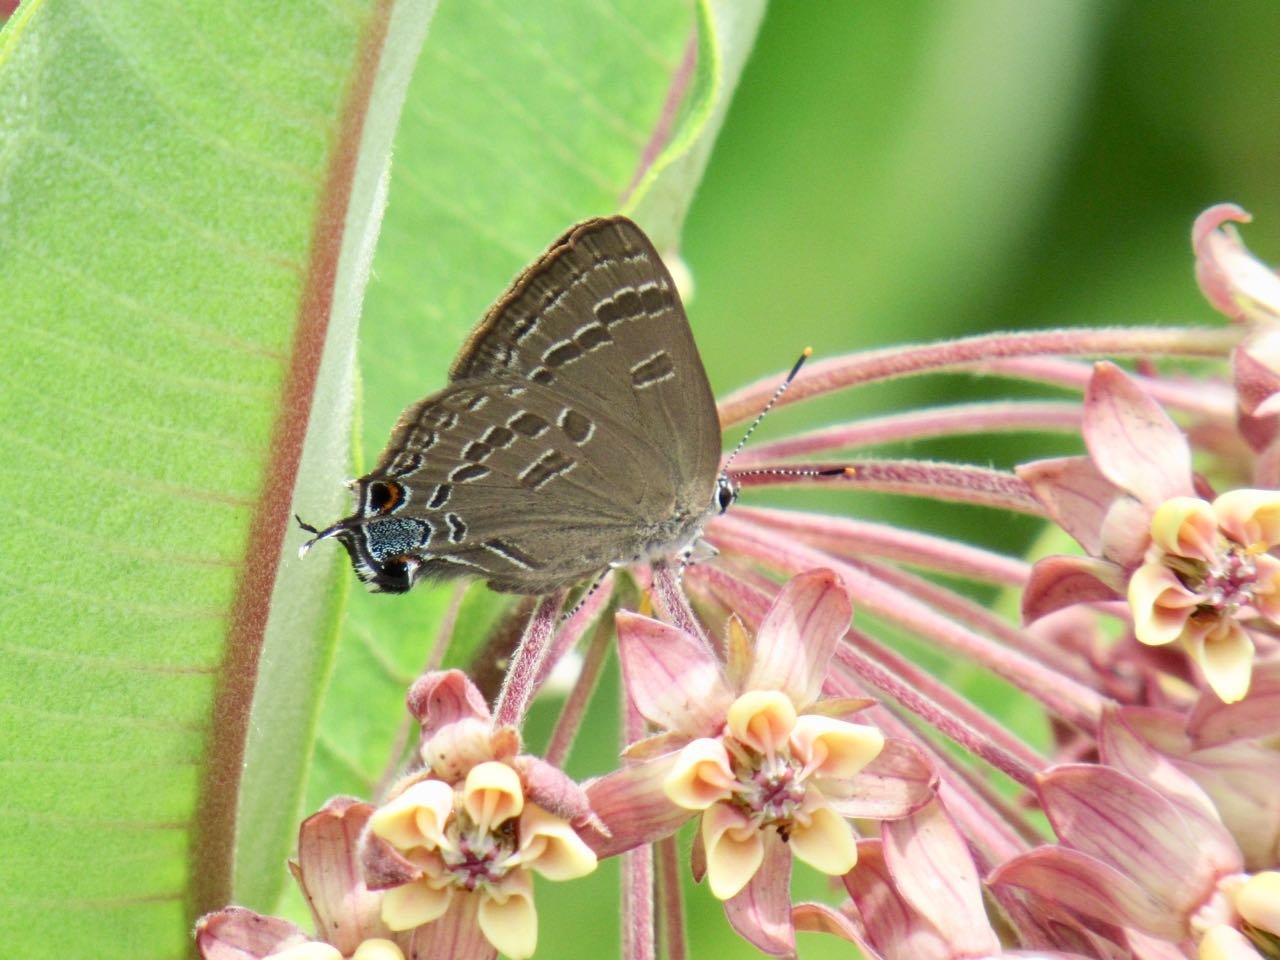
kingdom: Animalia
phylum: Arthropoda
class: Insecta
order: Lepidoptera
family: Lycaenidae
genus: Strymon
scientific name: Strymon caryaevorus
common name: Hickory Hairstreak
